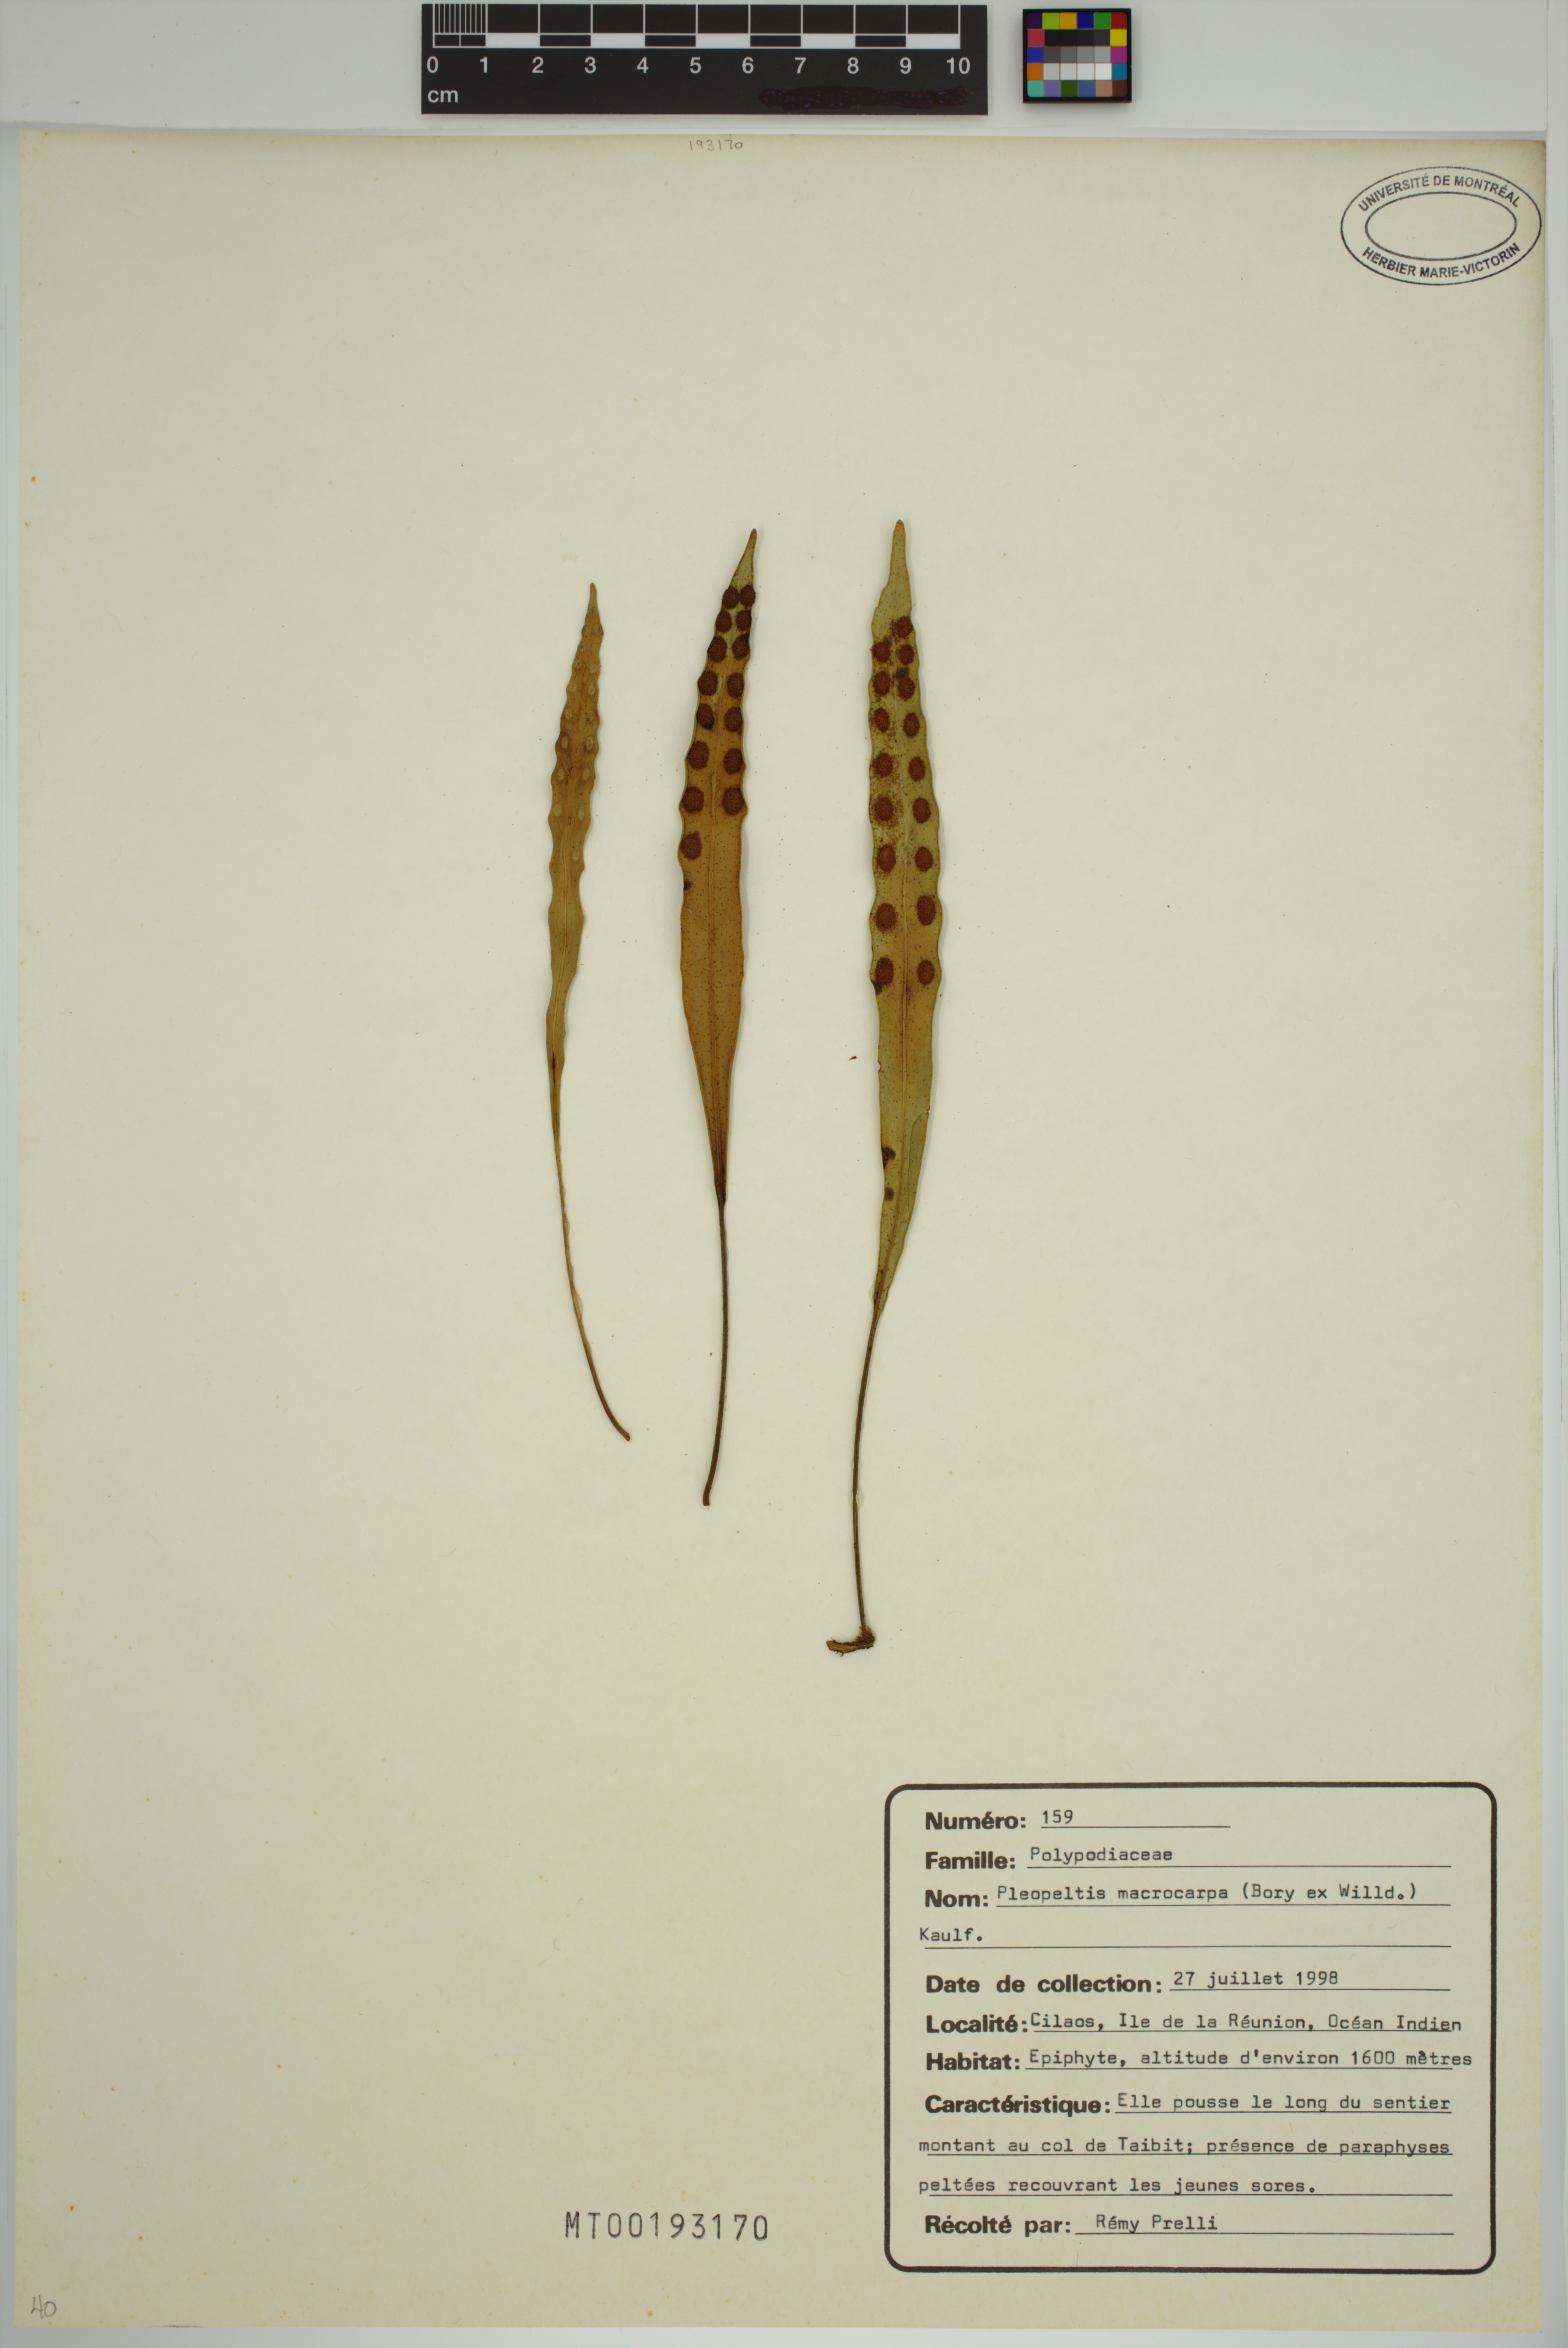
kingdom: Plantae
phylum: Tracheophyta
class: Polypodiopsida
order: Polypodiales
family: Polypodiaceae
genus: Pleopeltis
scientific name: Pleopeltis macrocarpa
